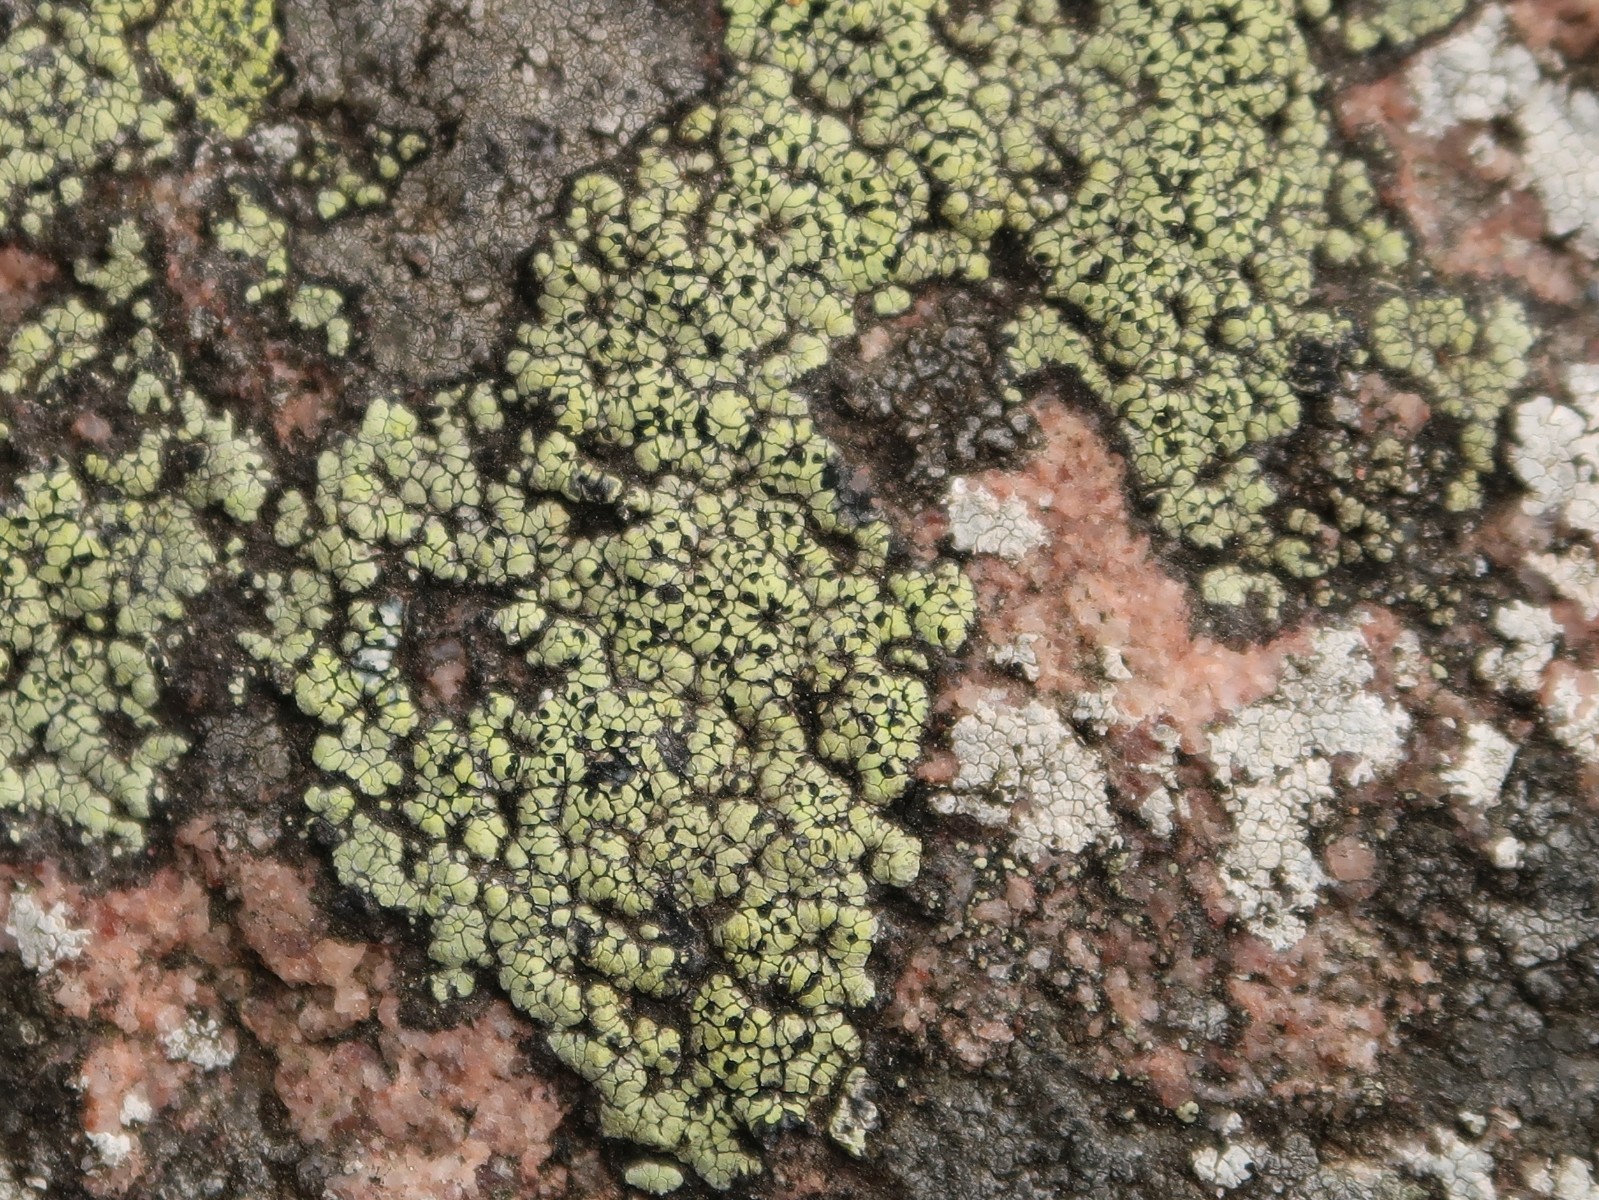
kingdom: Fungi
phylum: Ascomycota
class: Lecanoromycetes
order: Rhizocarpales
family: Rhizocarpaceae
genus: Rhizocarpon
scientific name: Rhizocarpon geographicum
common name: gulgrøn landkortlav
